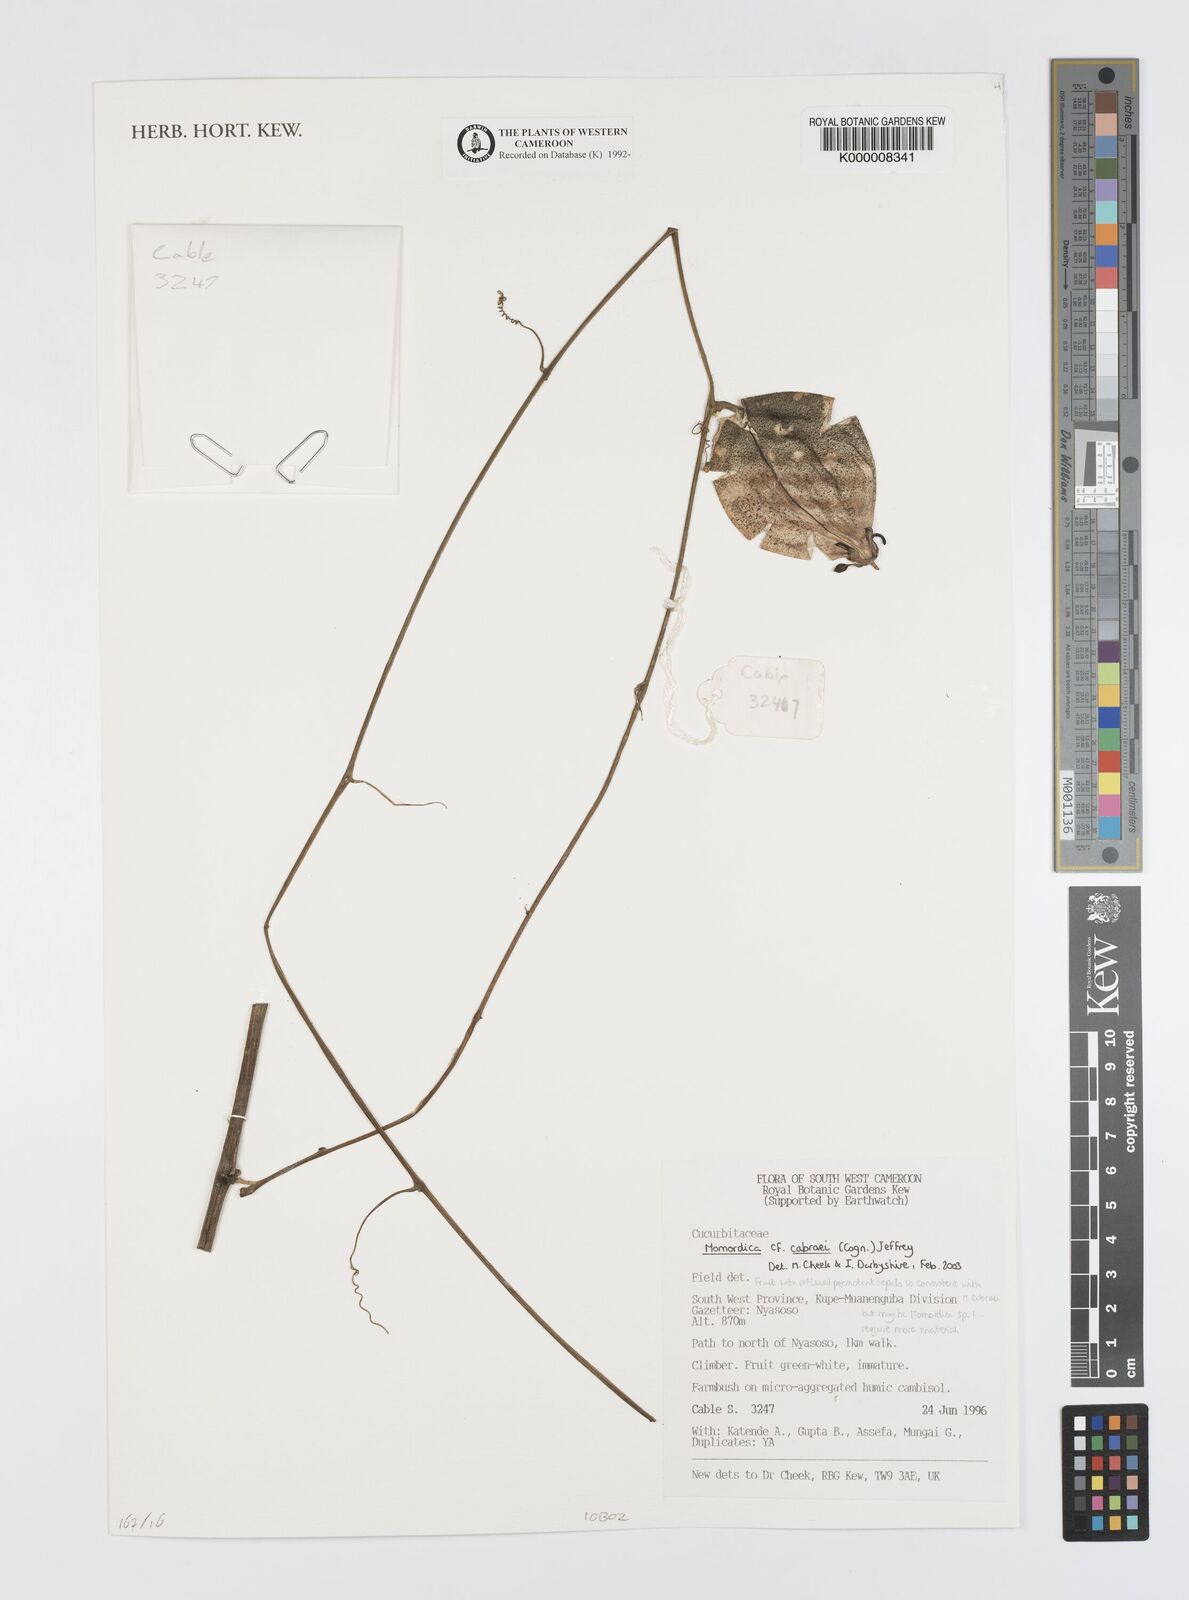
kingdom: Plantae
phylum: Tracheophyta
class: Magnoliopsida
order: Cucurbitales
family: Cucurbitaceae
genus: Momordica
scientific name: Momordica
